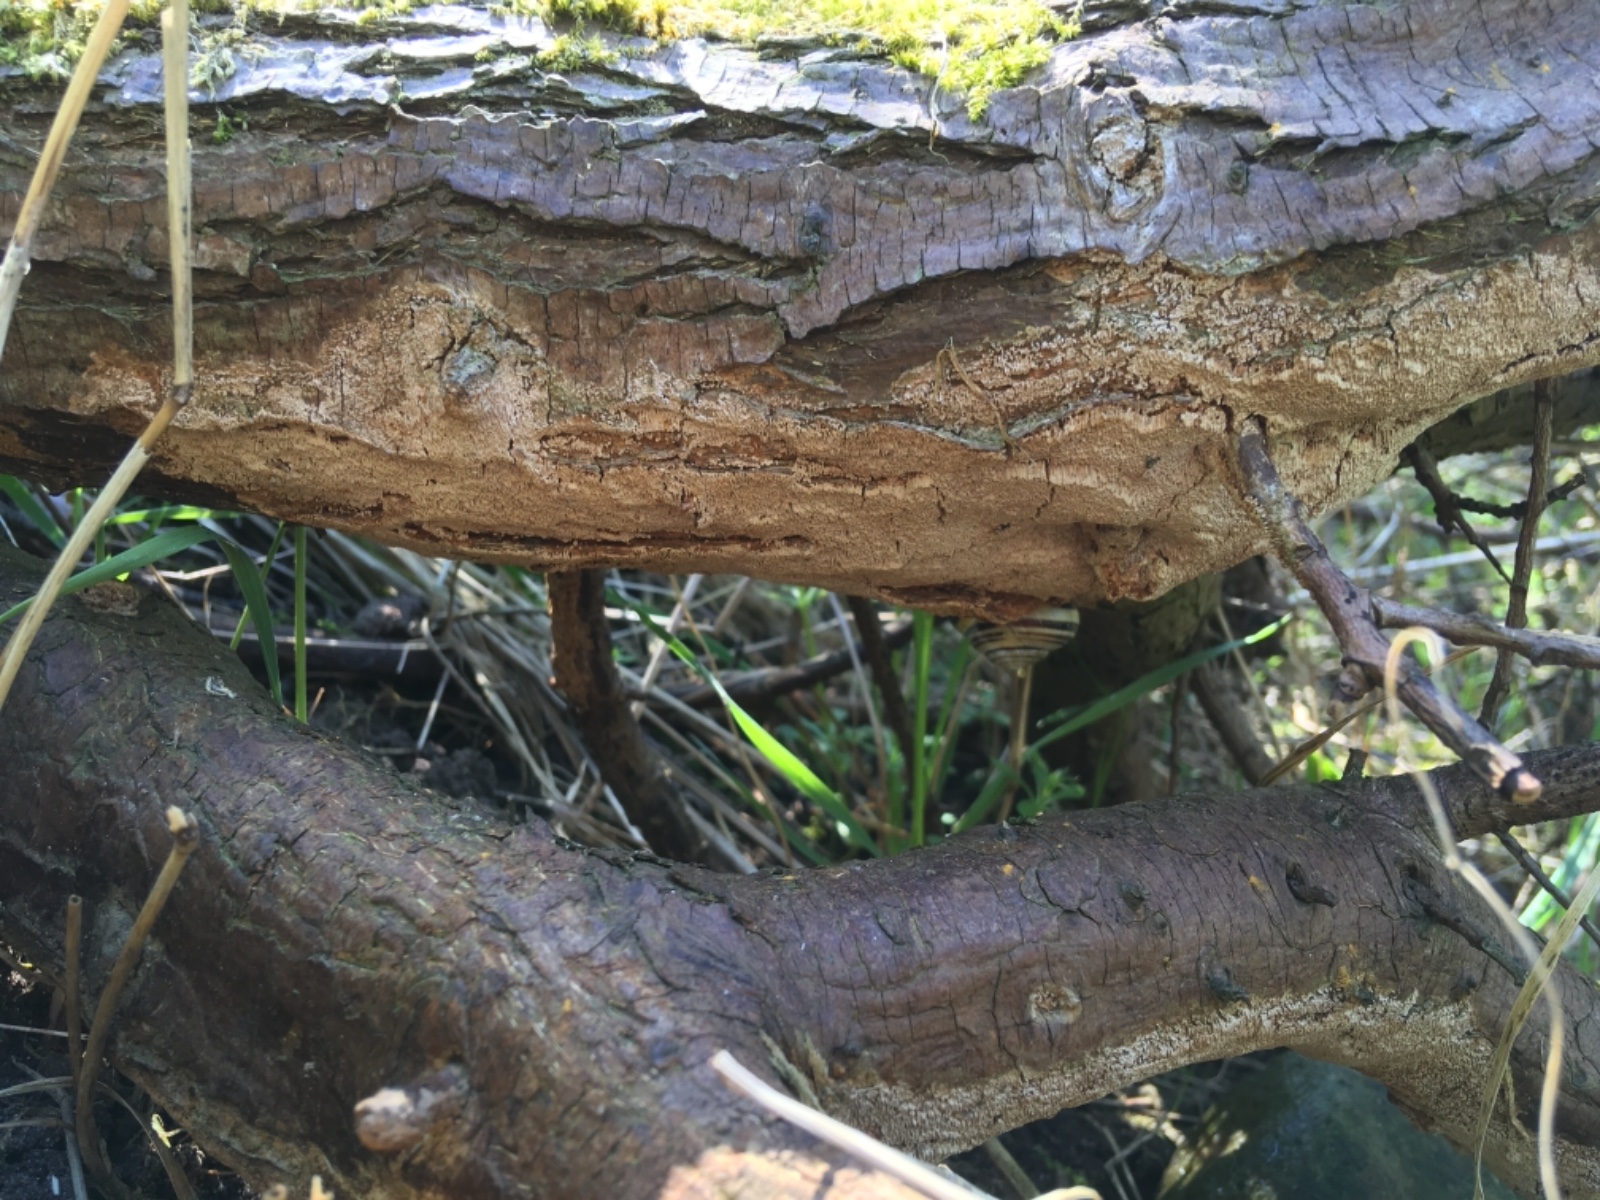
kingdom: Fungi
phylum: Basidiomycota
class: Agaricomycetes
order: Hymenochaetales
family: Hymenochaetaceae
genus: Fuscoporia
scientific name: Fuscoporia contigua
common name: grov ildporesvamp
